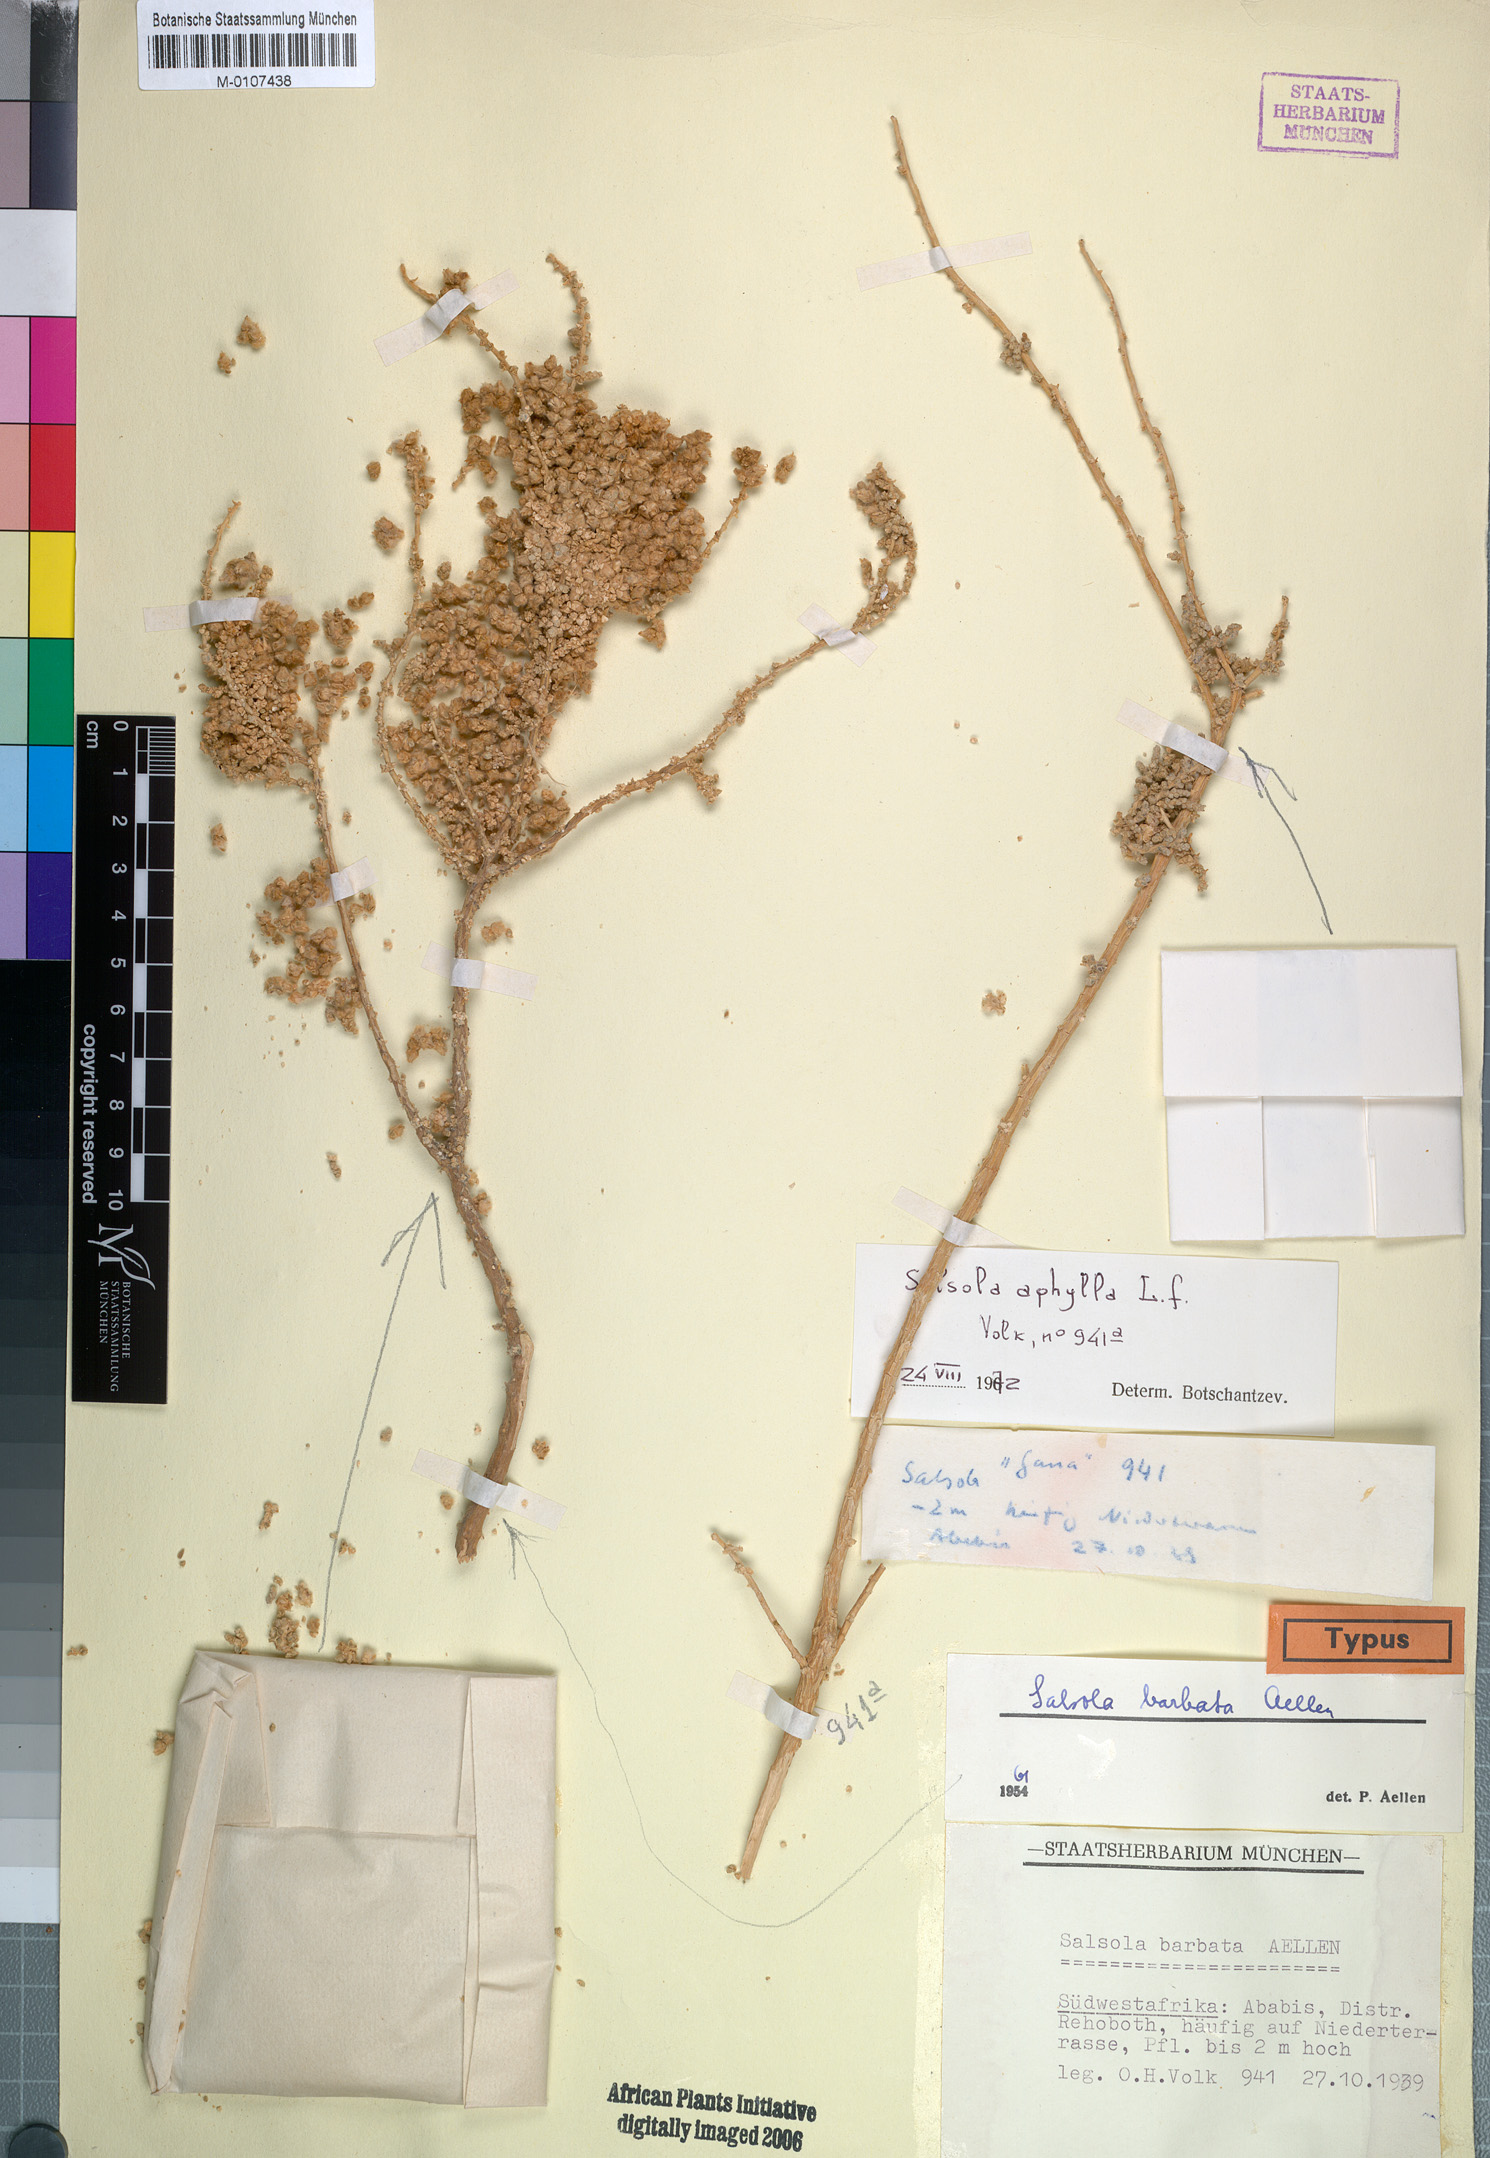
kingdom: Plantae
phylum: Tracheophyta
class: Magnoliopsida
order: Caryophyllales
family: Amaranthaceae
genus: Caroxylon
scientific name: Caroxylon barbatum
